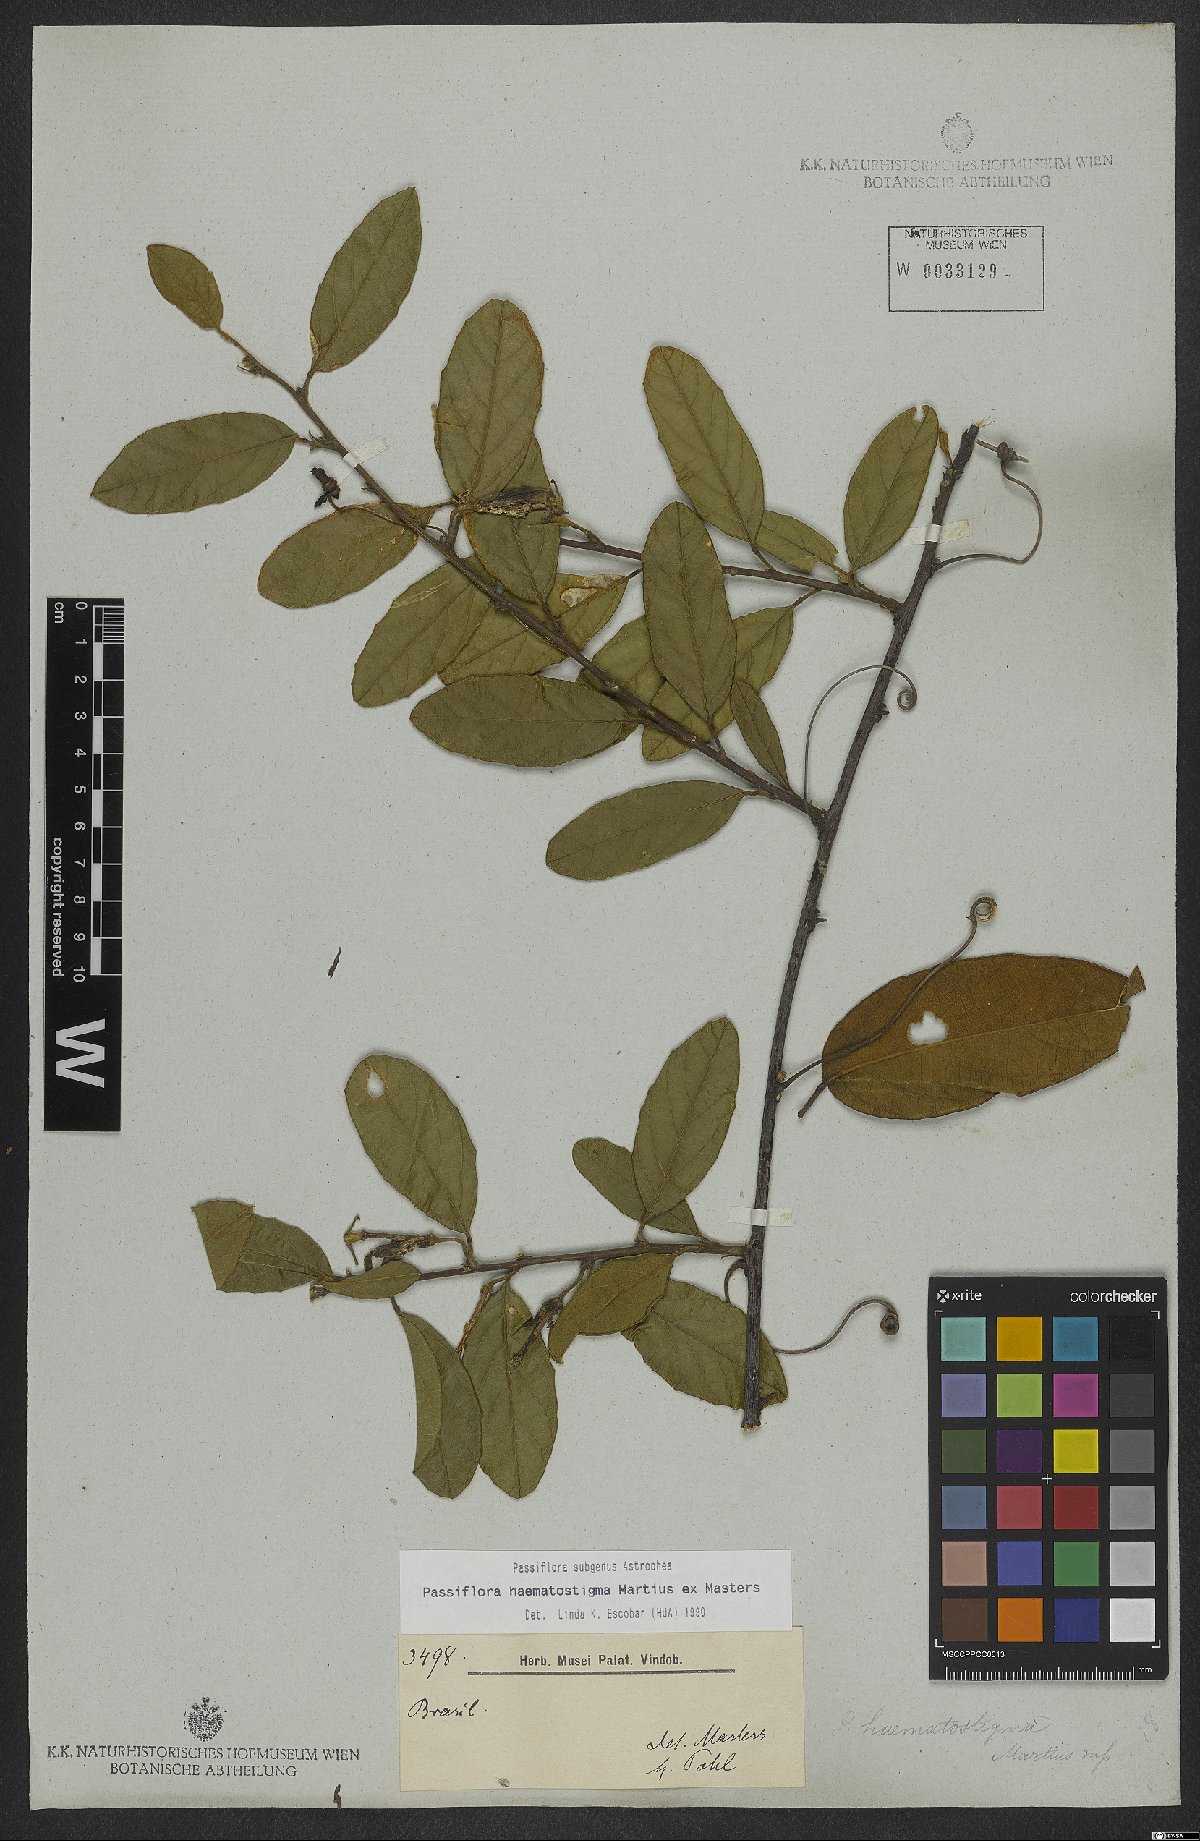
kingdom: Plantae
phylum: Tracheophyta
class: Magnoliopsida
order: Malpighiales
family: Passifloraceae
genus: Passiflora
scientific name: Passiflora haematostigma
